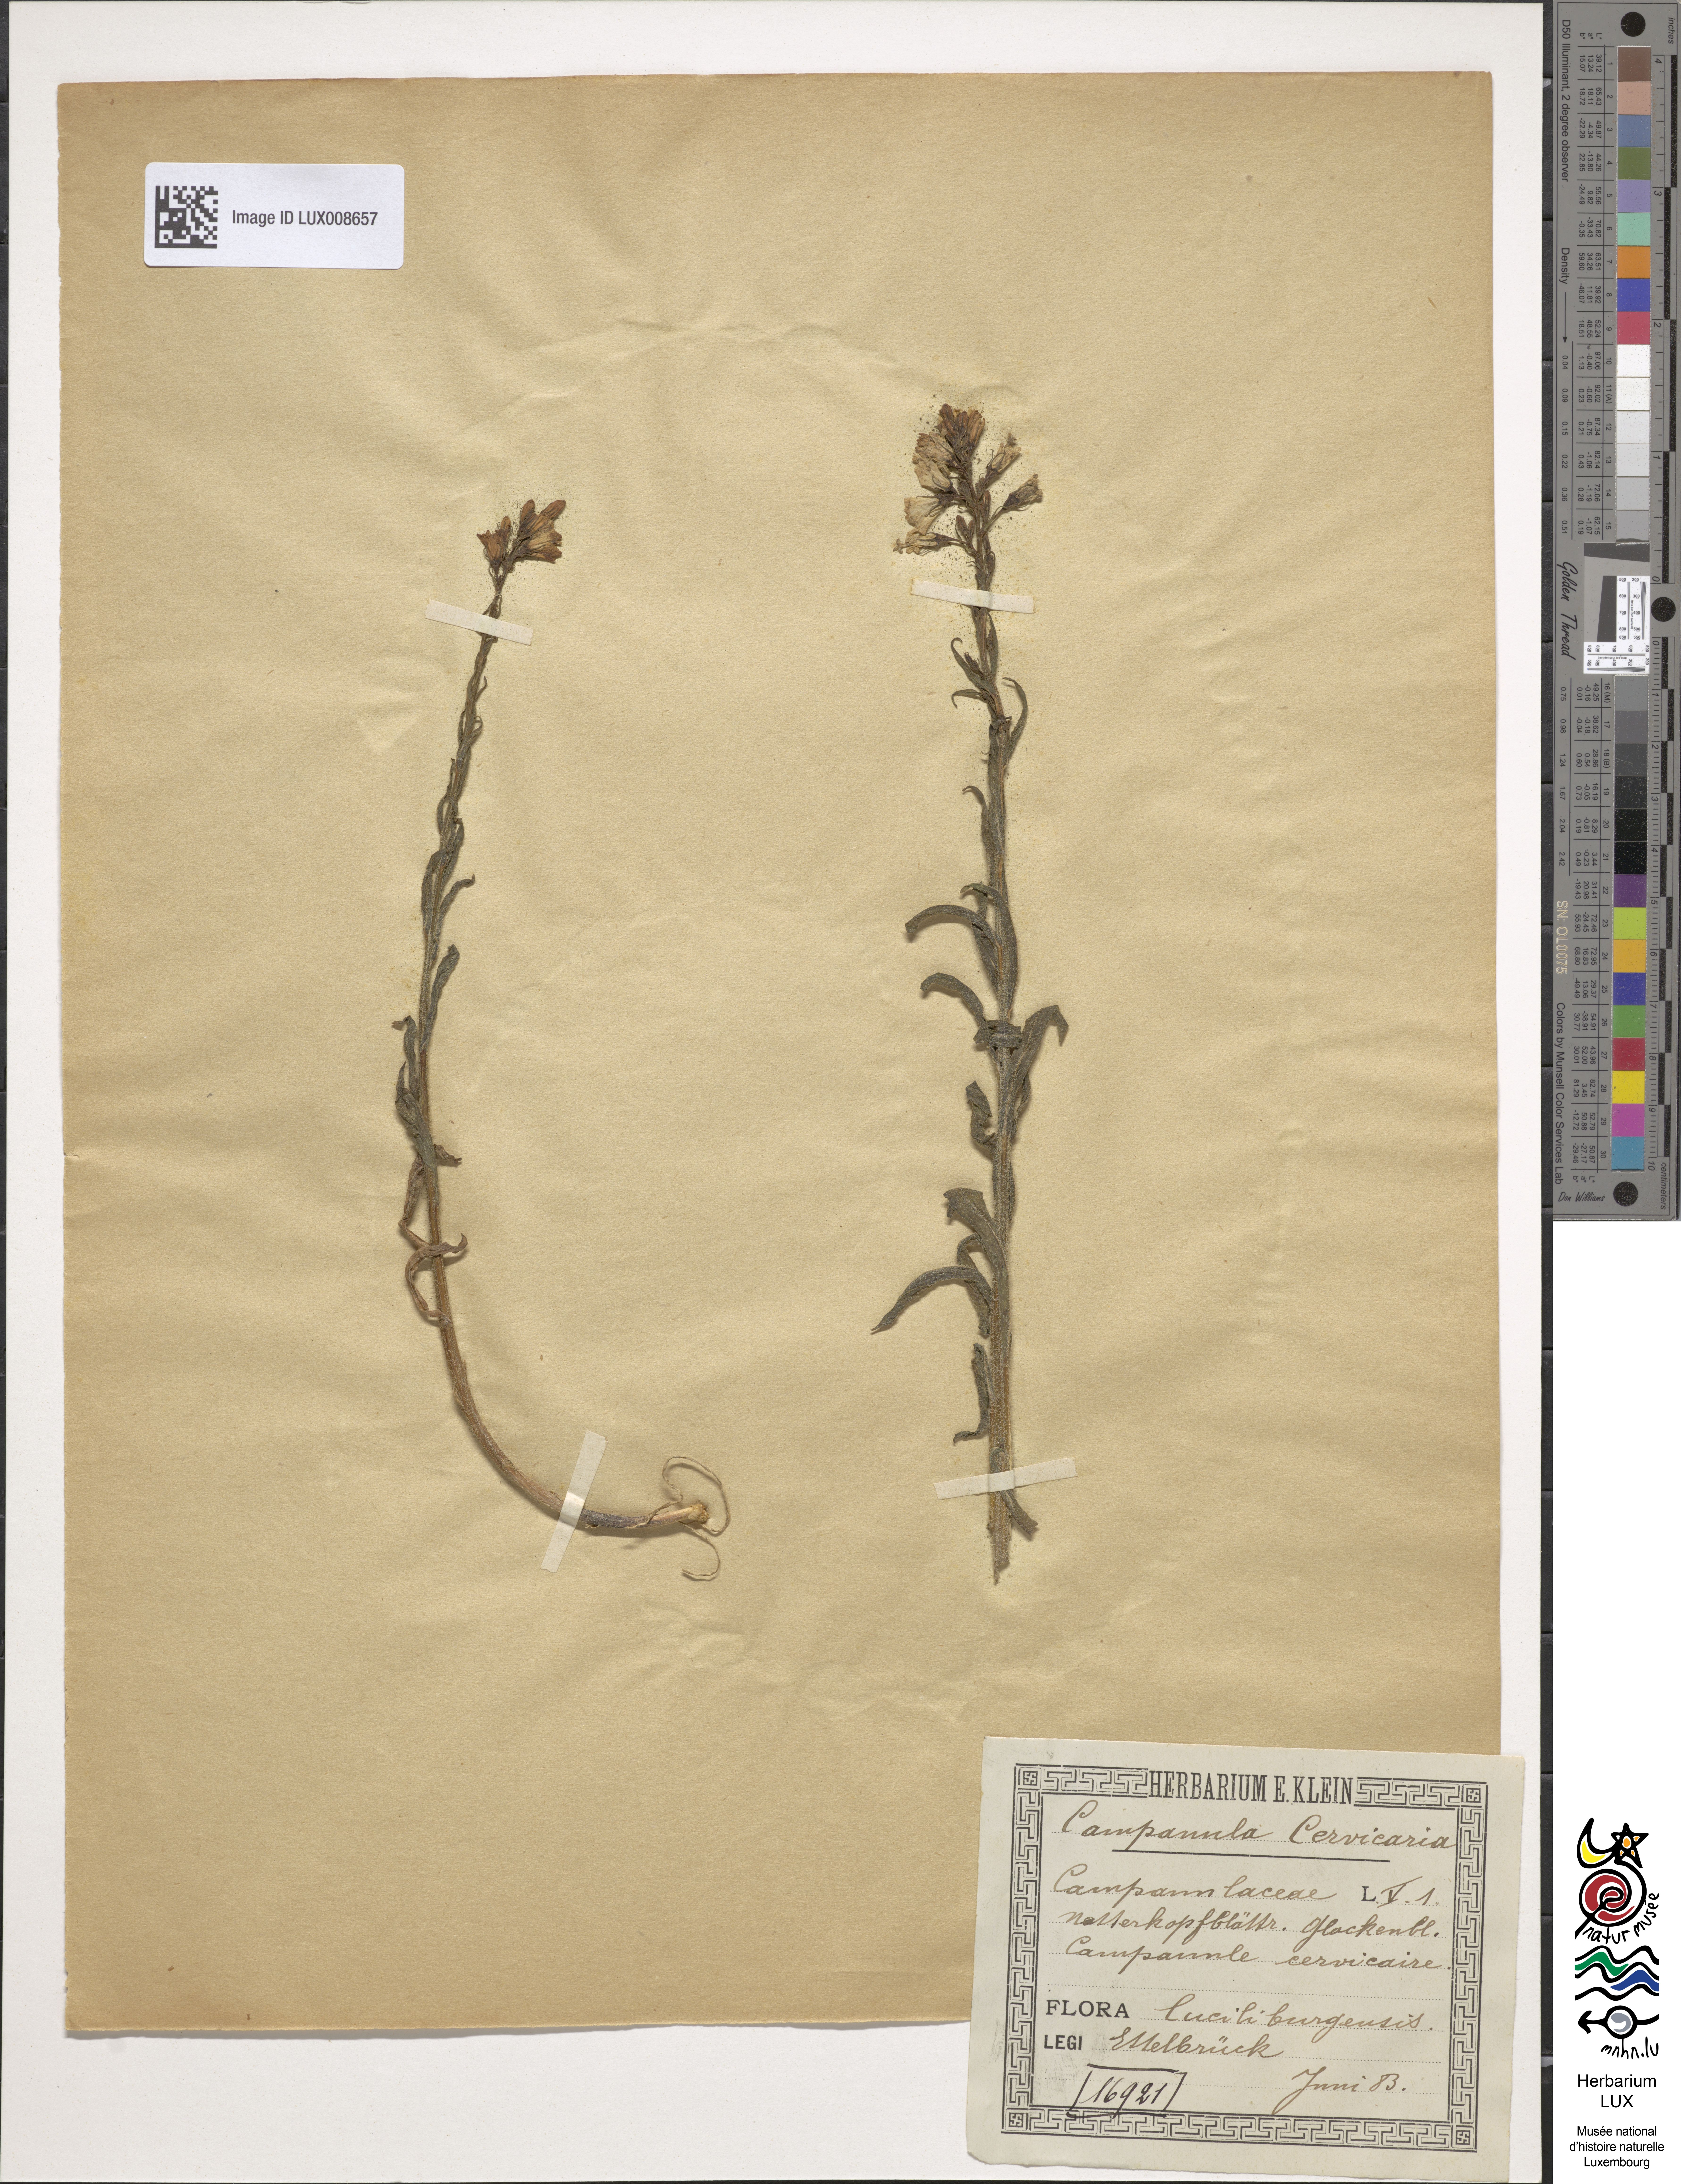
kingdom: Plantae
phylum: Tracheophyta
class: Magnoliopsida
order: Asterales
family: Campanulaceae
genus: Campanula
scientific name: Campanula cervicaria
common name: Bristly bellflower
